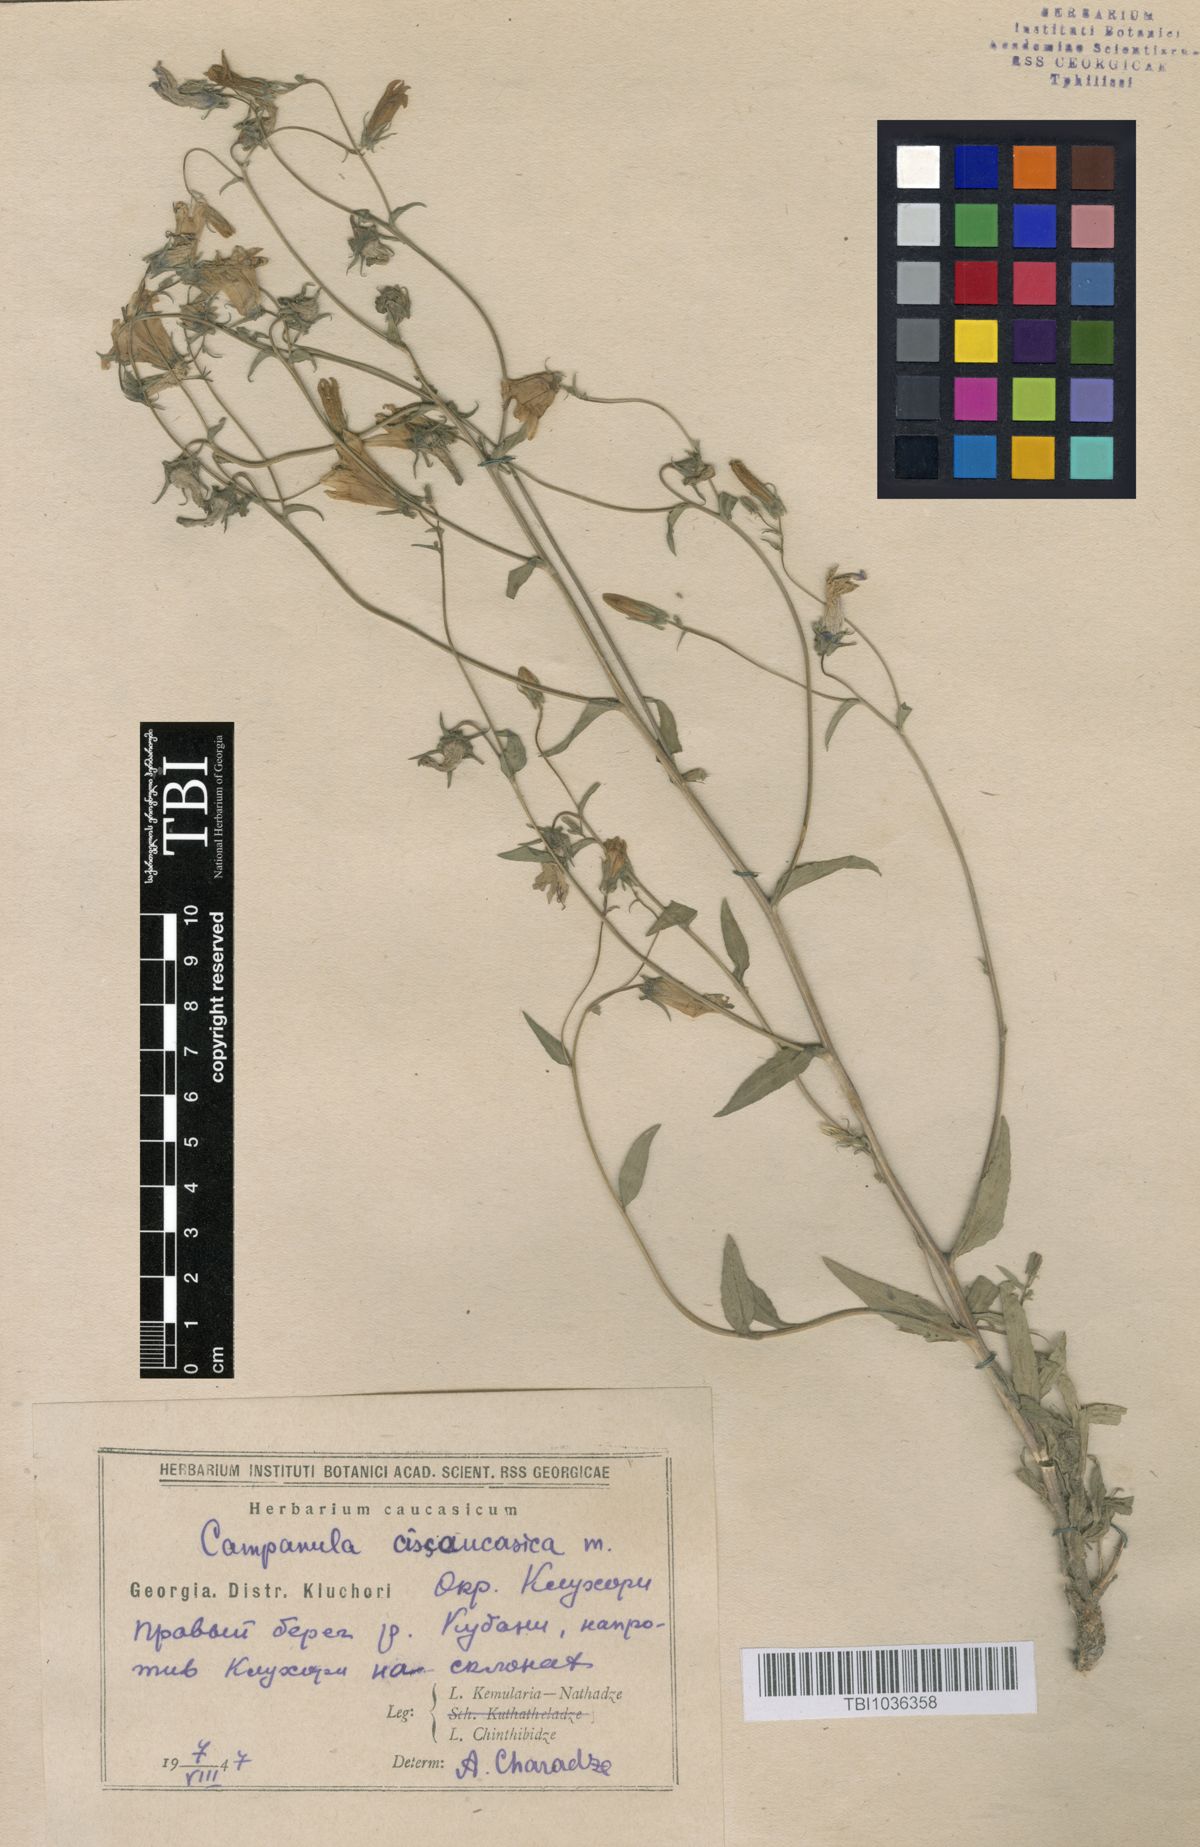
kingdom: Plantae
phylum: Tracheophyta
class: Magnoliopsida
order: Asterales
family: Campanulaceae
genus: Campanula
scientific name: Campanula sibirica
